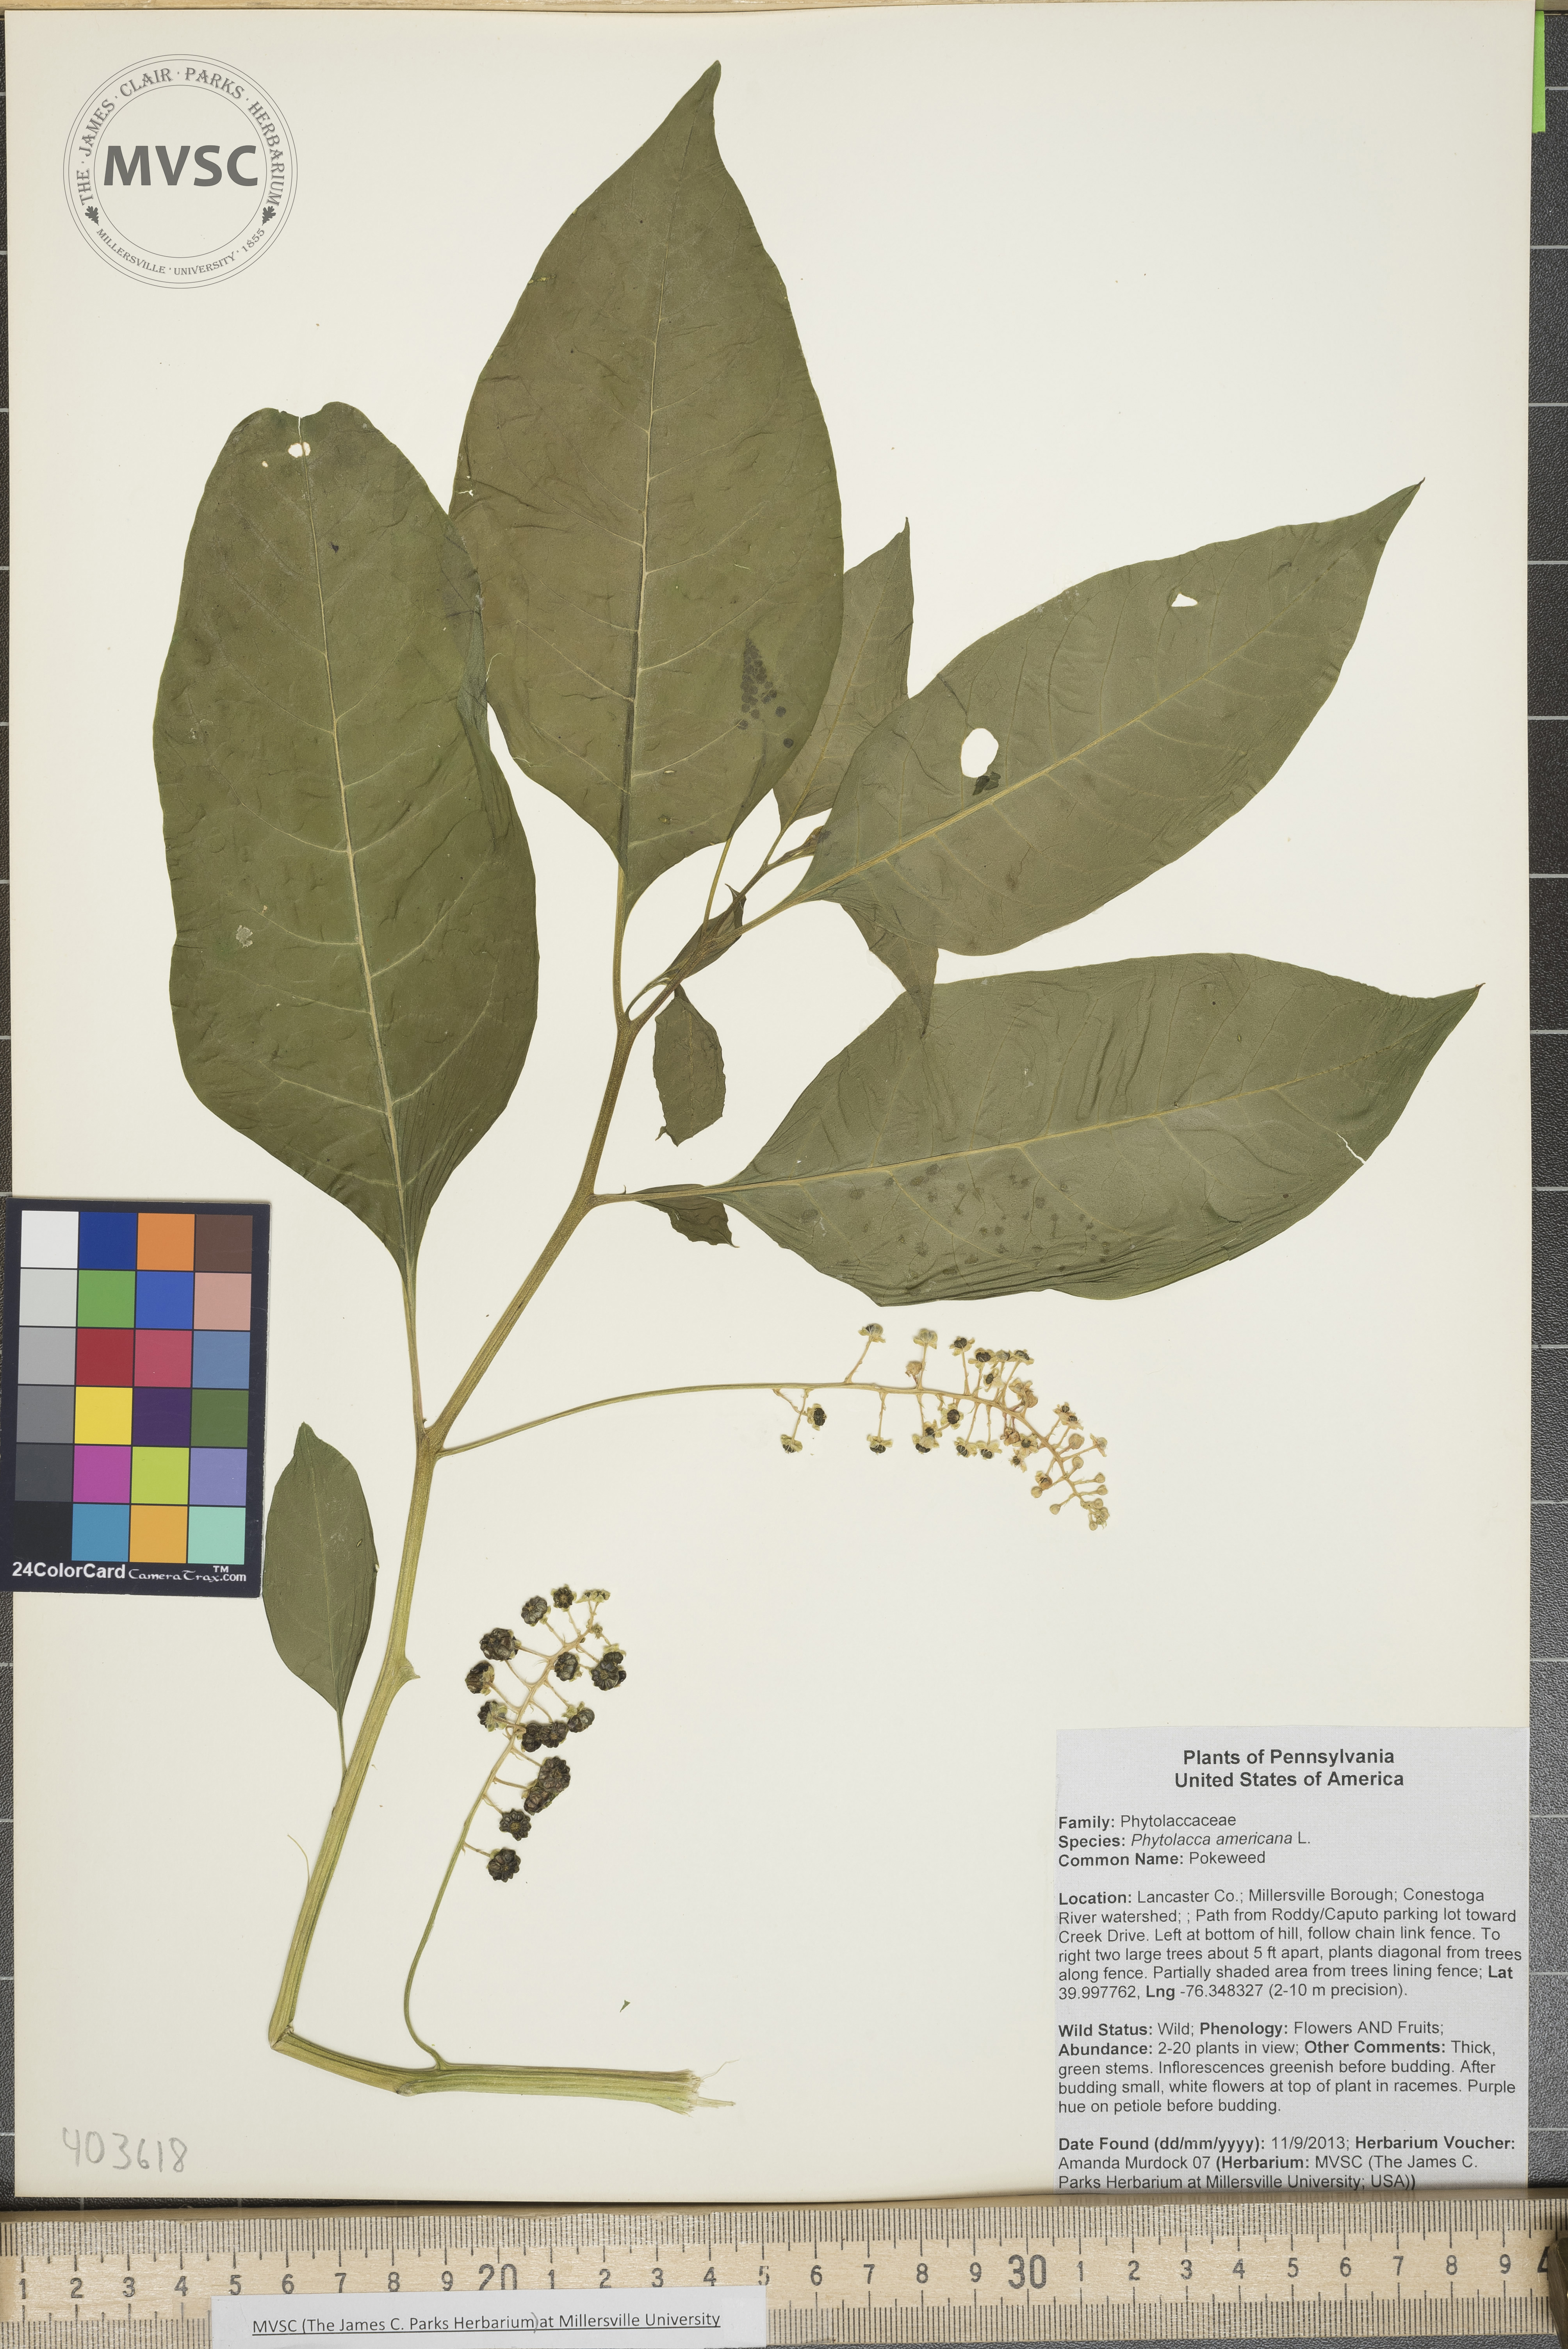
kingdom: Plantae
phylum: Tracheophyta
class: Magnoliopsida
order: Caryophyllales
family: Phytolaccaceae
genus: Phytolacca
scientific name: Phytolacca americana
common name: Pokeweed
